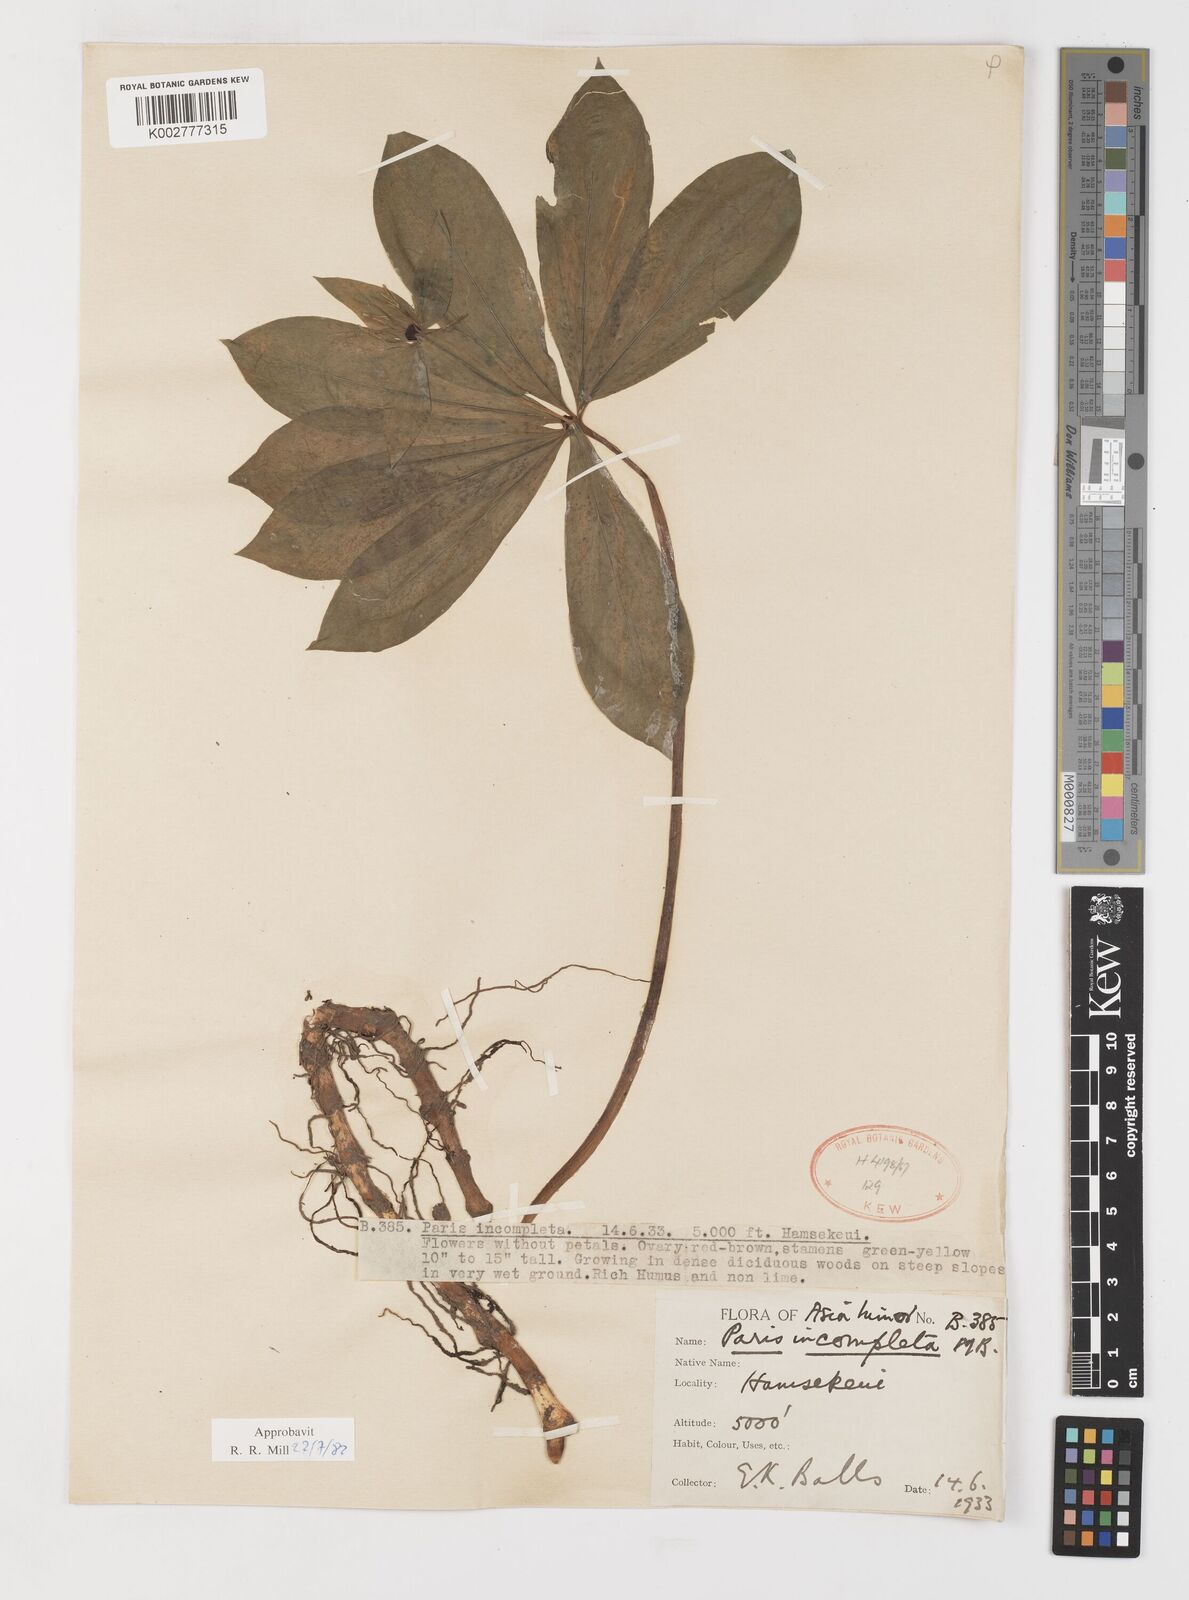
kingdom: Plantae
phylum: Tracheophyta
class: Liliopsida
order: Liliales
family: Melanthiaceae
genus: Paris
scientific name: Paris incompleta
